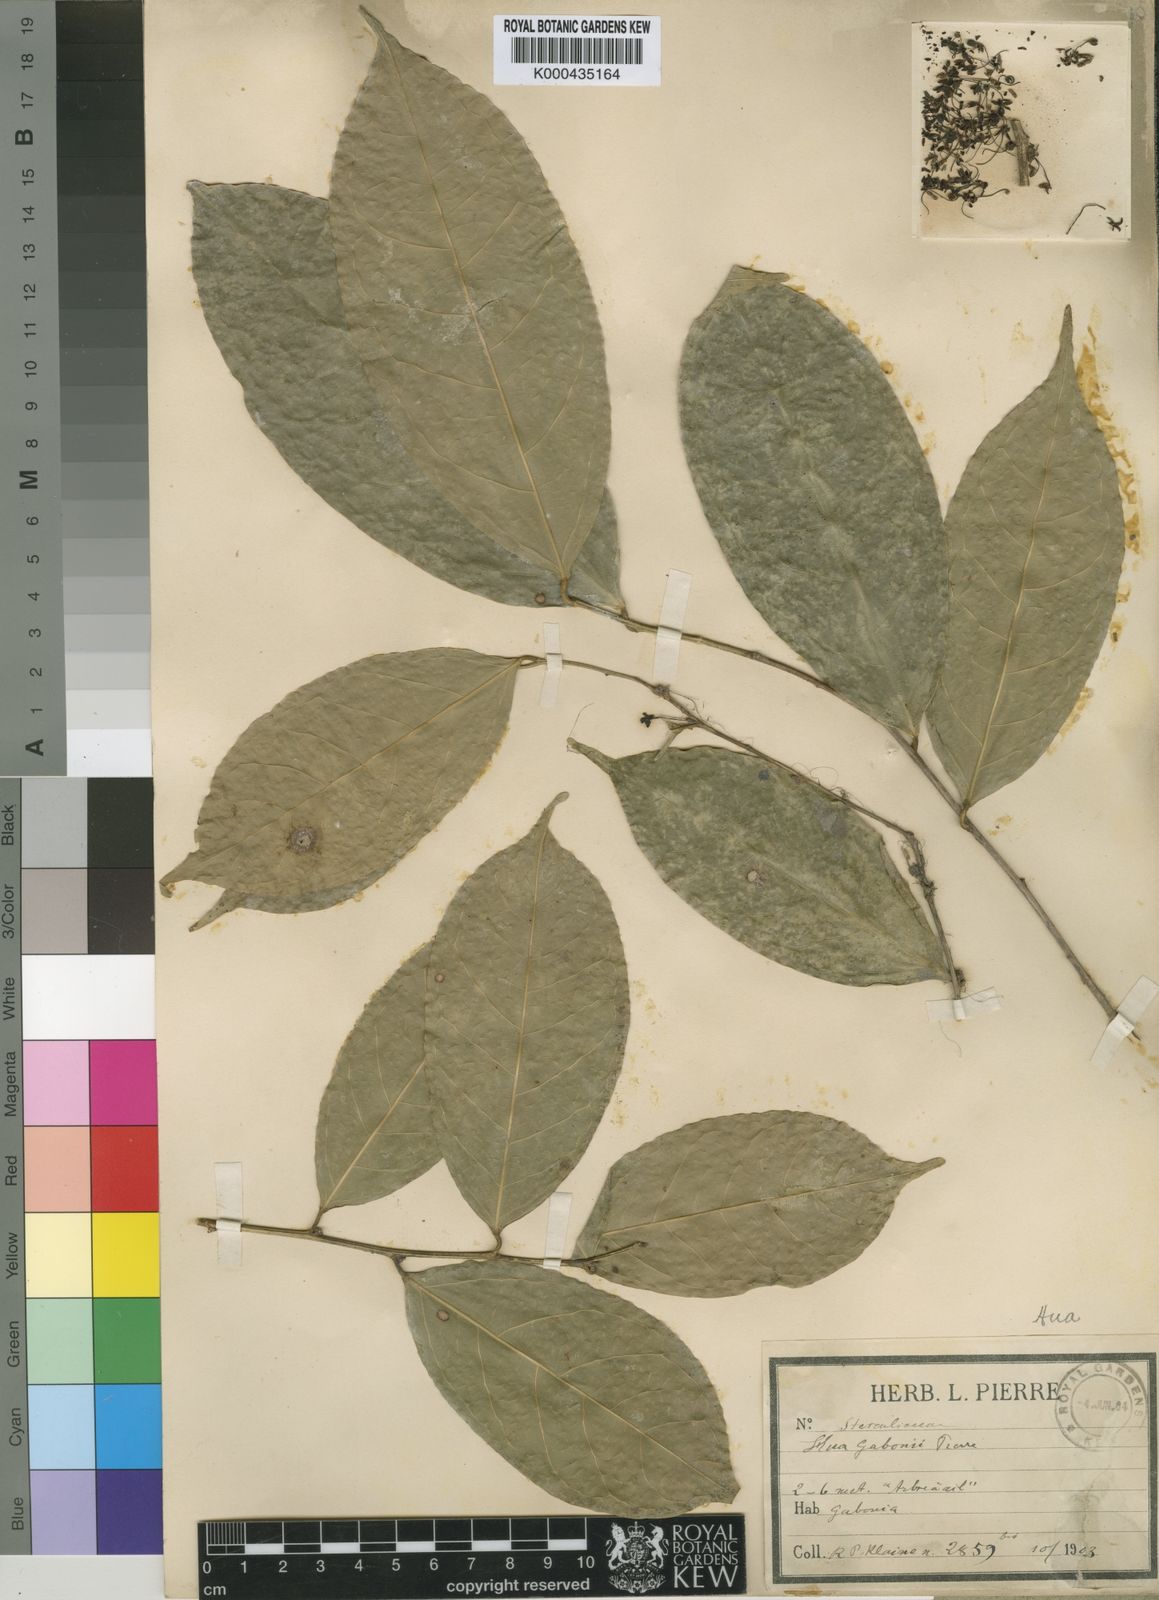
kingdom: Plantae
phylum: Tracheophyta
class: Magnoliopsida
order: Oxalidales
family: Huaceae
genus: Hua
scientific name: Hua gaboni
